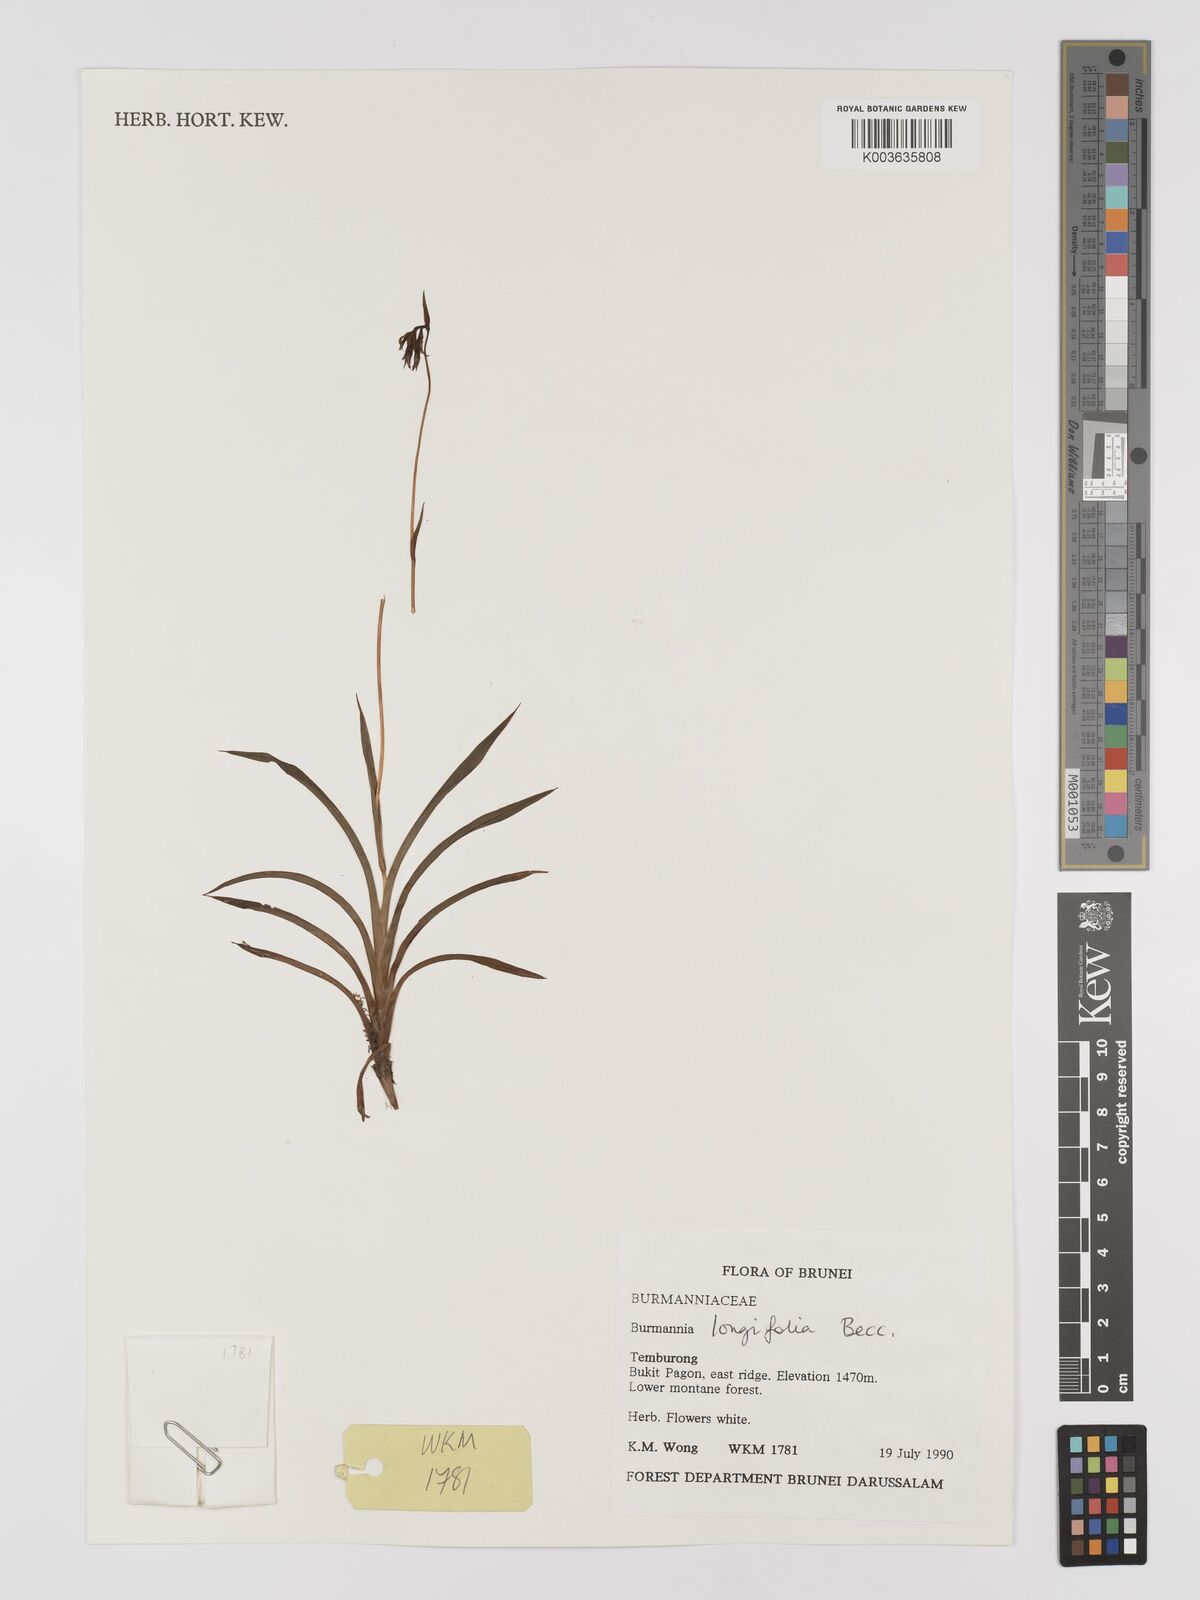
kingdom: Plantae
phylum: Tracheophyta
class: Liliopsida
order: Dioscoreales
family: Burmanniaceae
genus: Burmannia
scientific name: Burmannia longifolia
